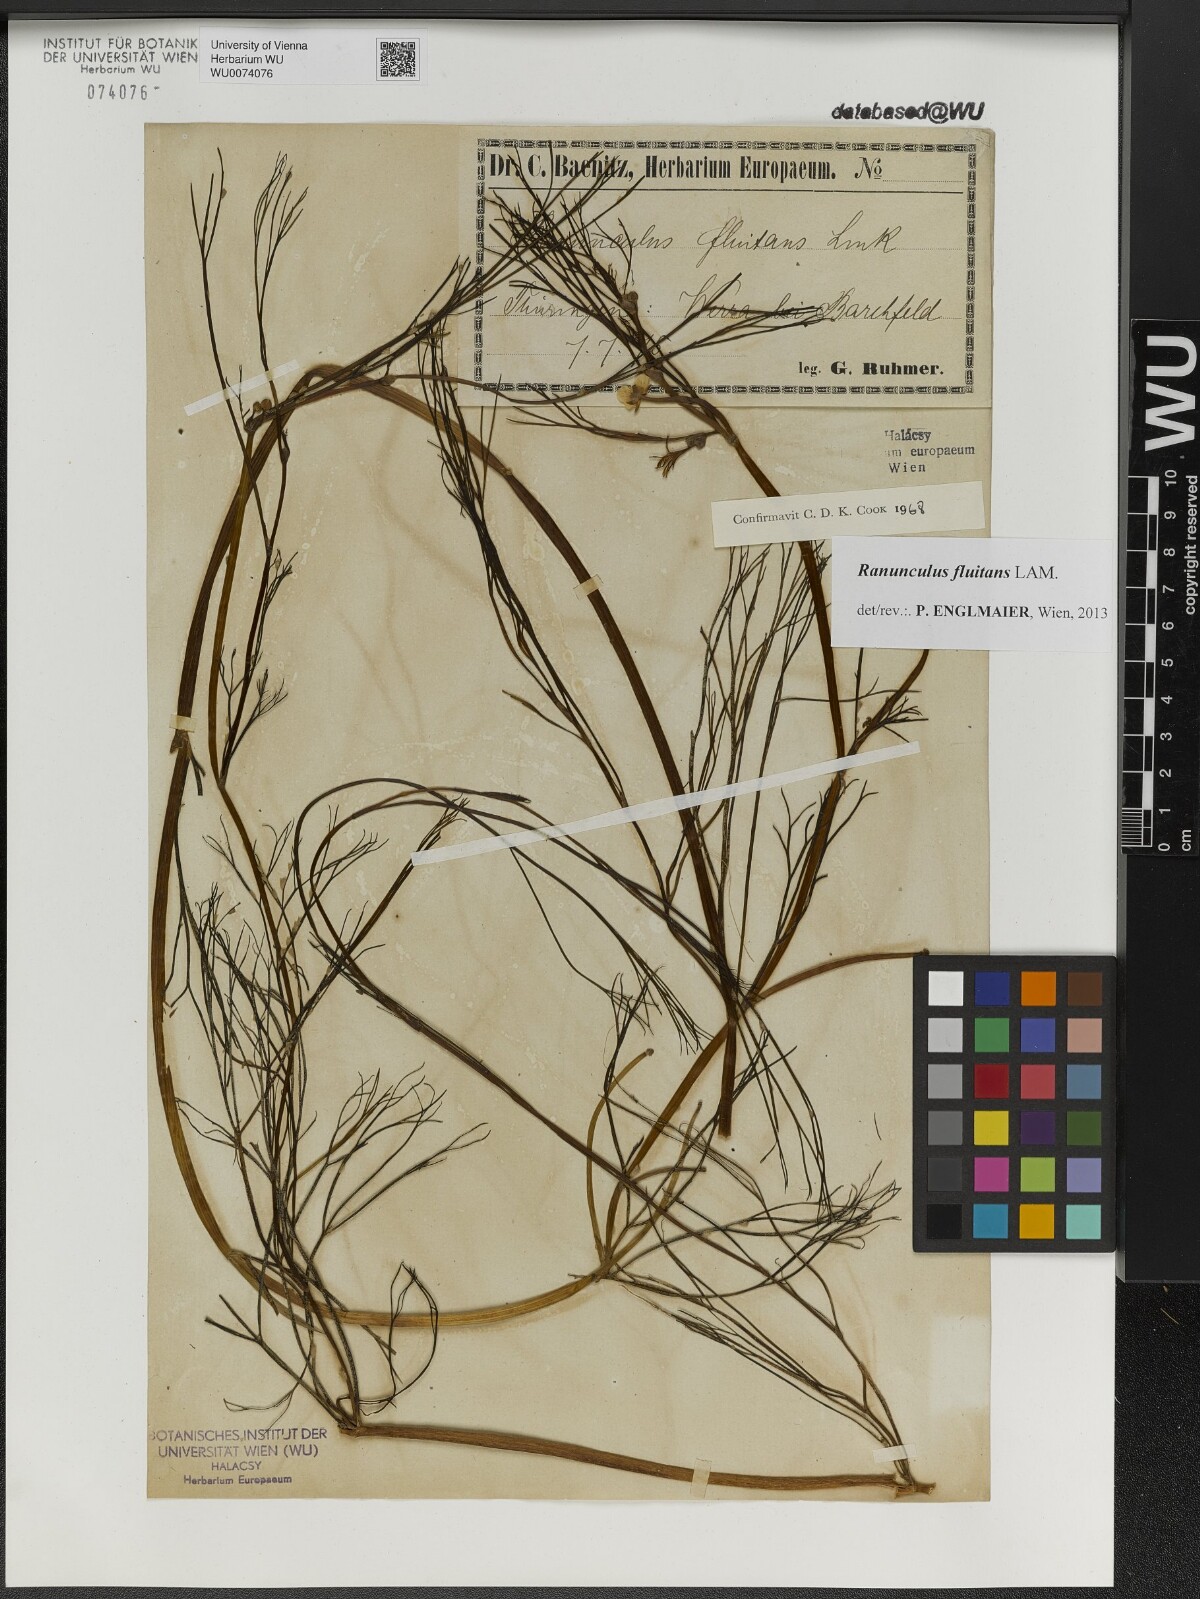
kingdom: Plantae
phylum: Tracheophyta
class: Magnoliopsida
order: Ranunculales
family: Ranunculaceae
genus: Ranunculus
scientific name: Ranunculus fluitans
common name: River water-crowfoot
